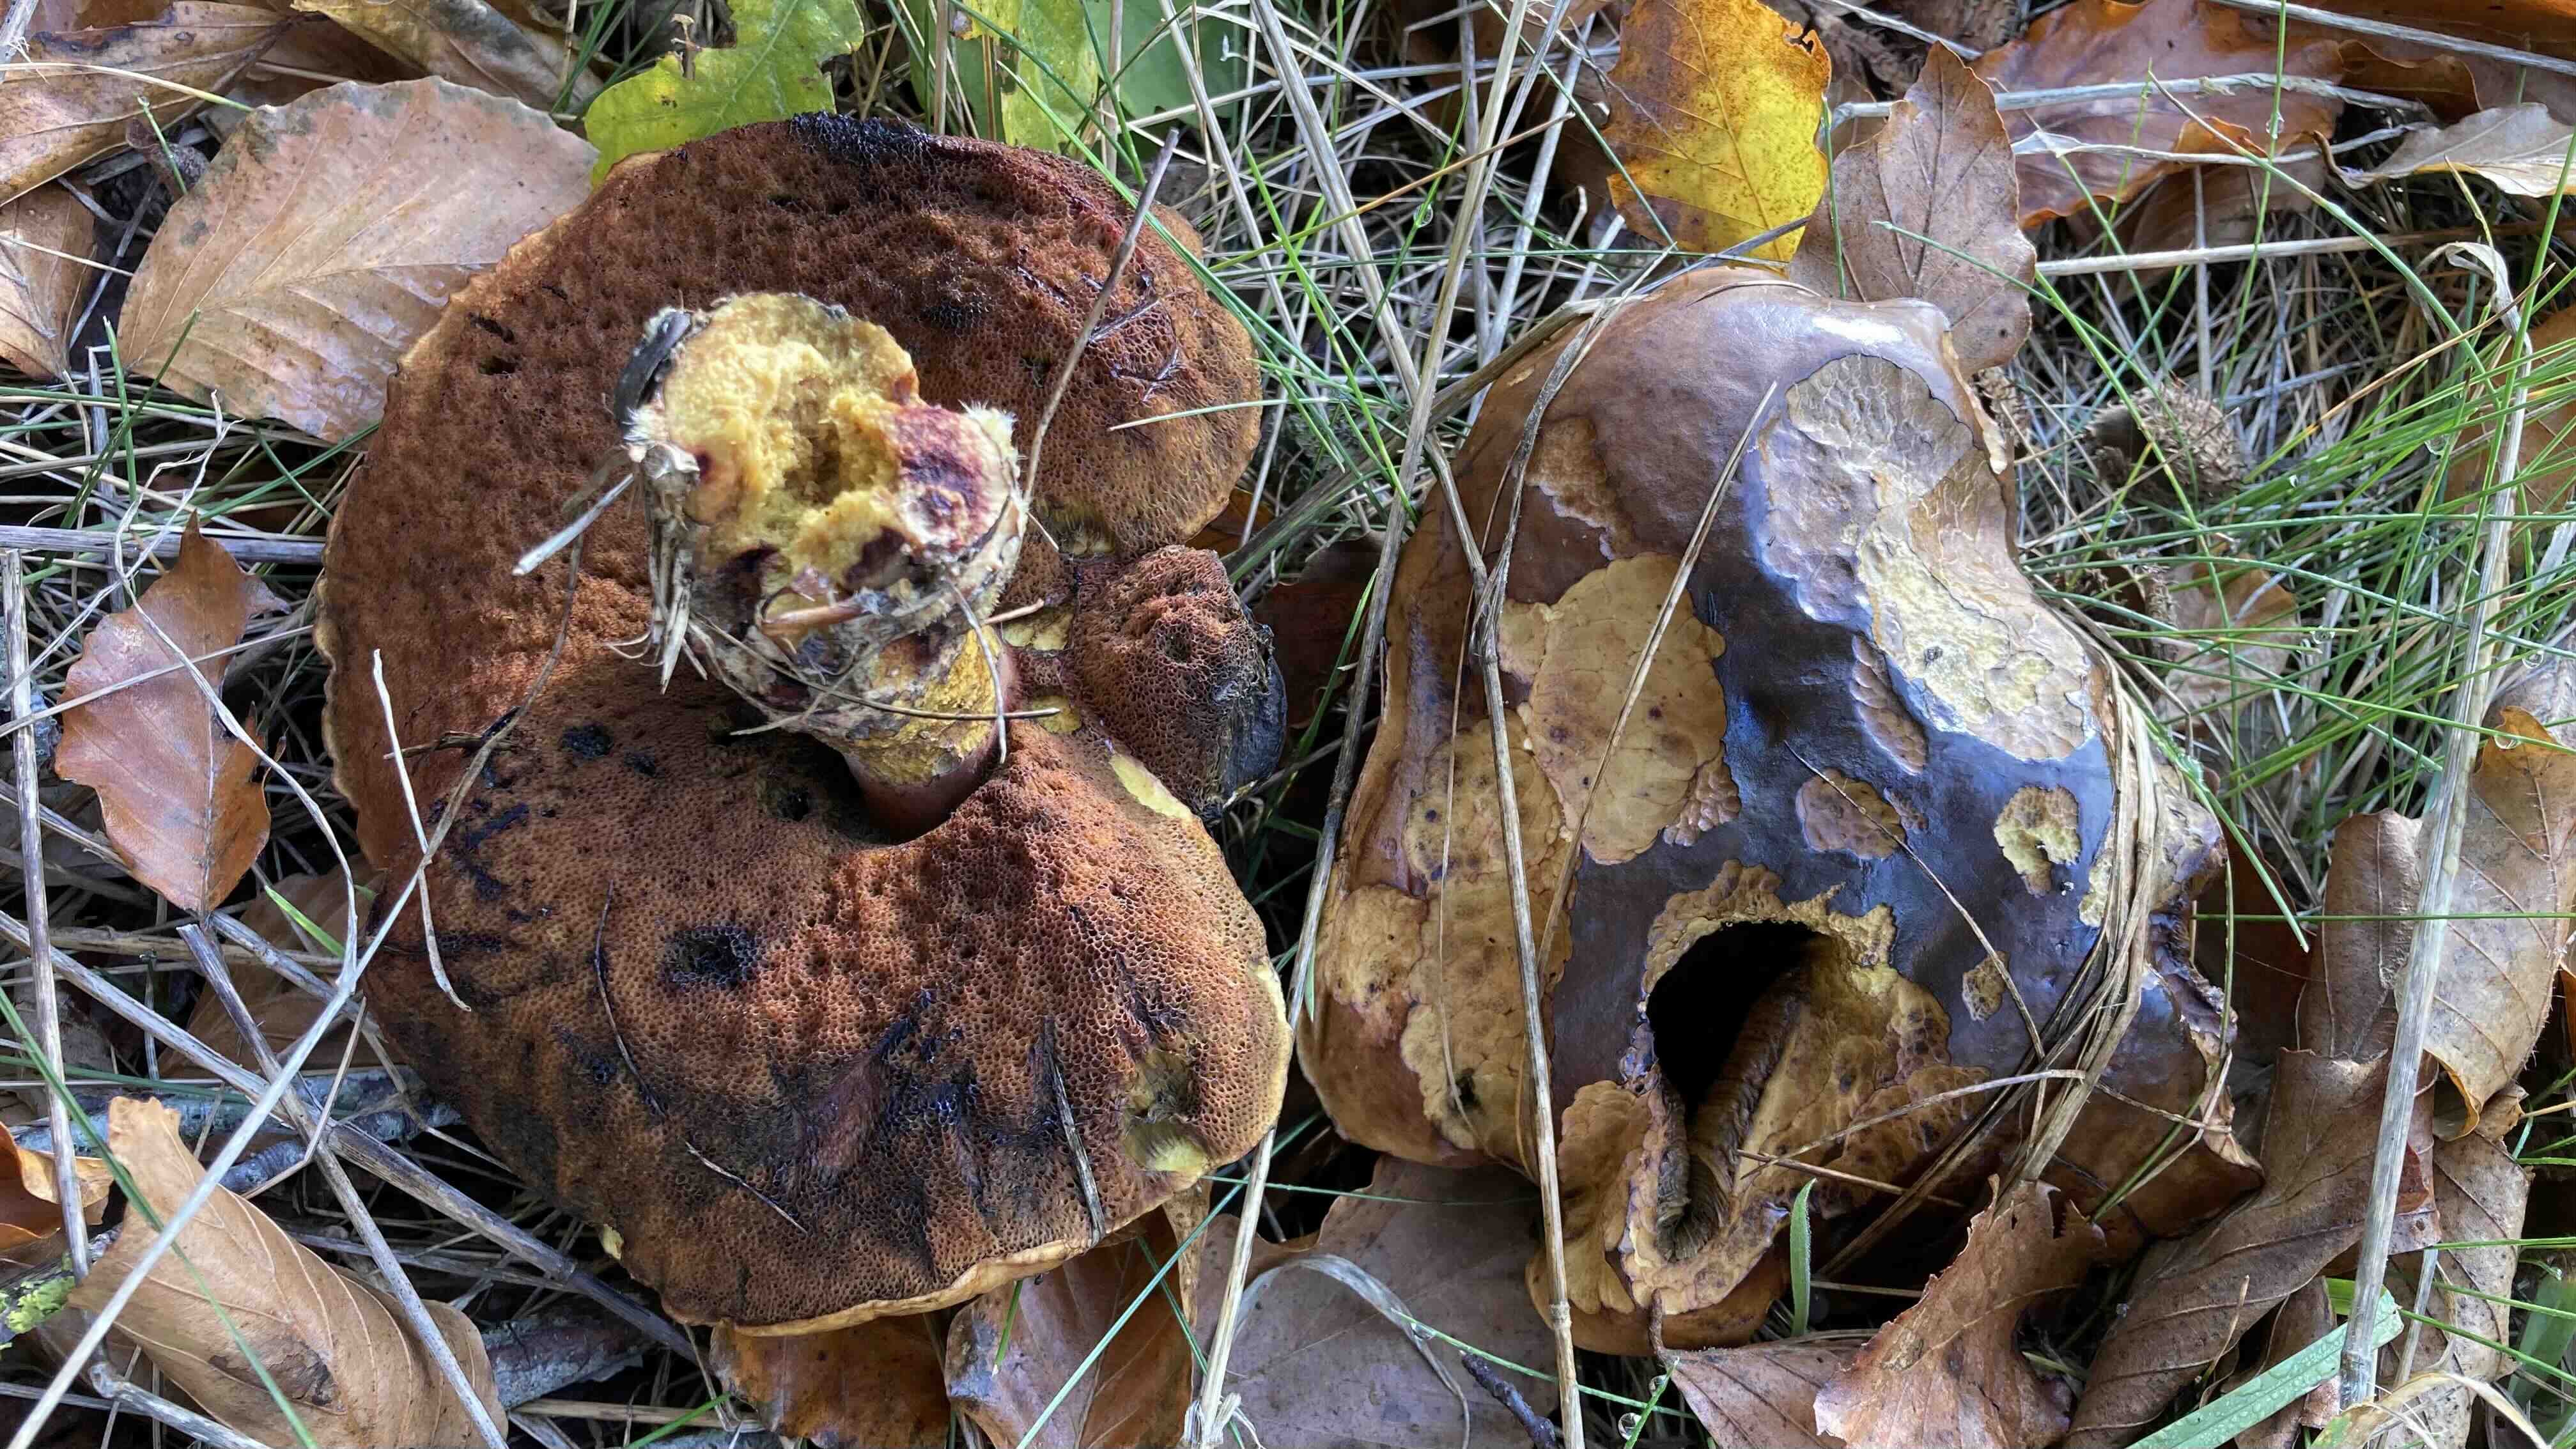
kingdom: Fungi
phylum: Basidiomycota
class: Agaricomycetes
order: Boletales
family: Boletaceae
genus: Neoboletus
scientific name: Neoboletus erythropus
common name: punktstokket indigorørhat
